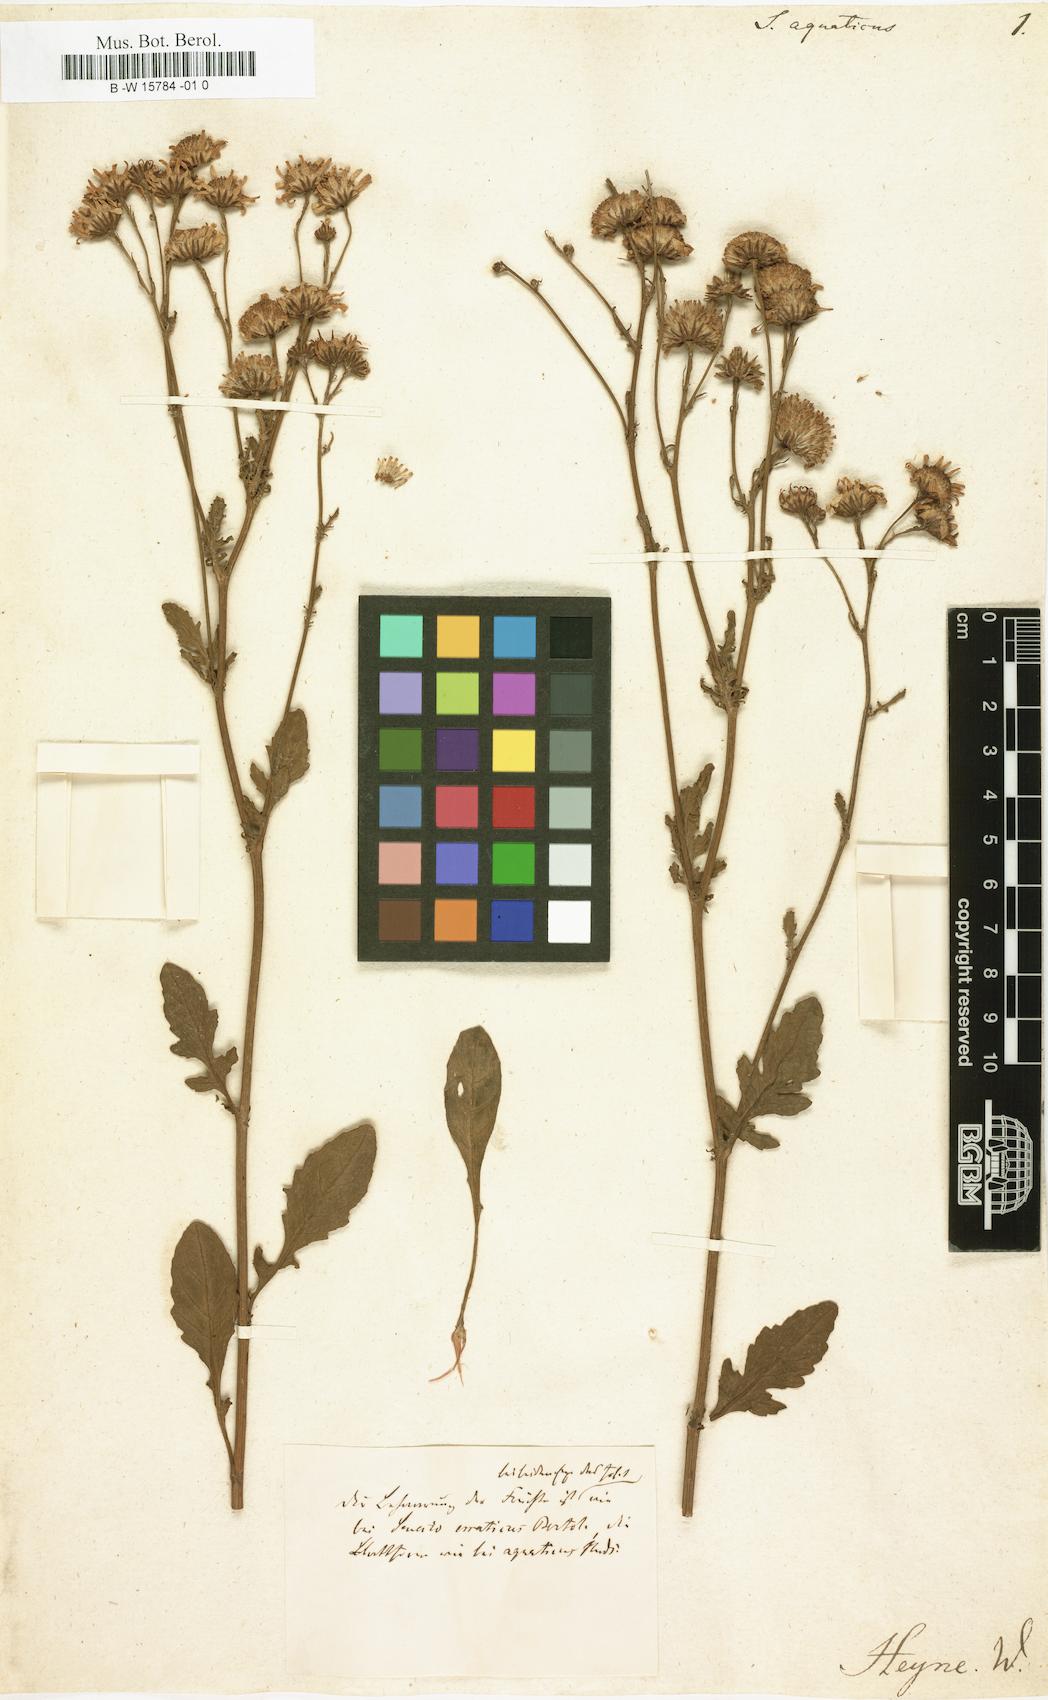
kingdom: Plantae
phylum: Tracheophyta
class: Magnoliopsida
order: Asterales
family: Asteraceae
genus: Senecio
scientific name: Senecio aquaticus
